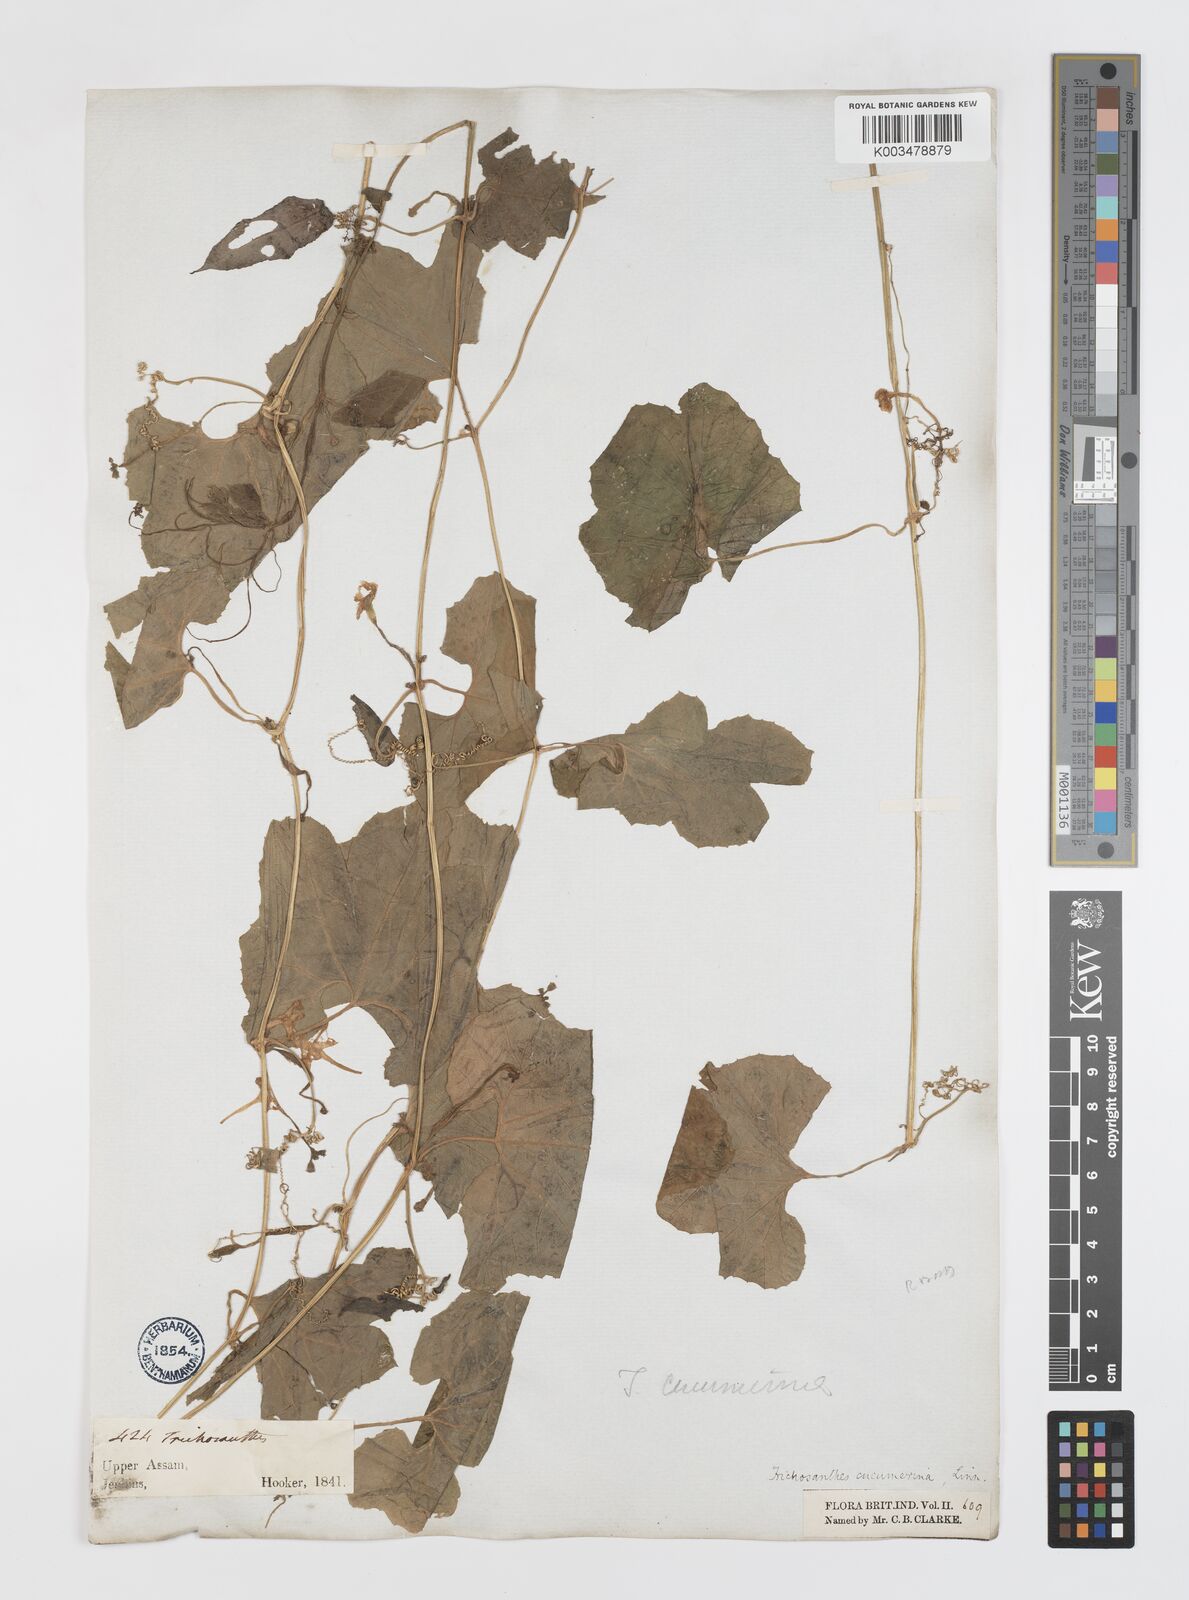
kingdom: Plantae
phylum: Tracheophyta
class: Magnoliopsida
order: Cucurbitales
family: Cucurbitaceae
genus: Trichosanthes
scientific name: Trichosanthes cucumerina
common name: Snakegourd
